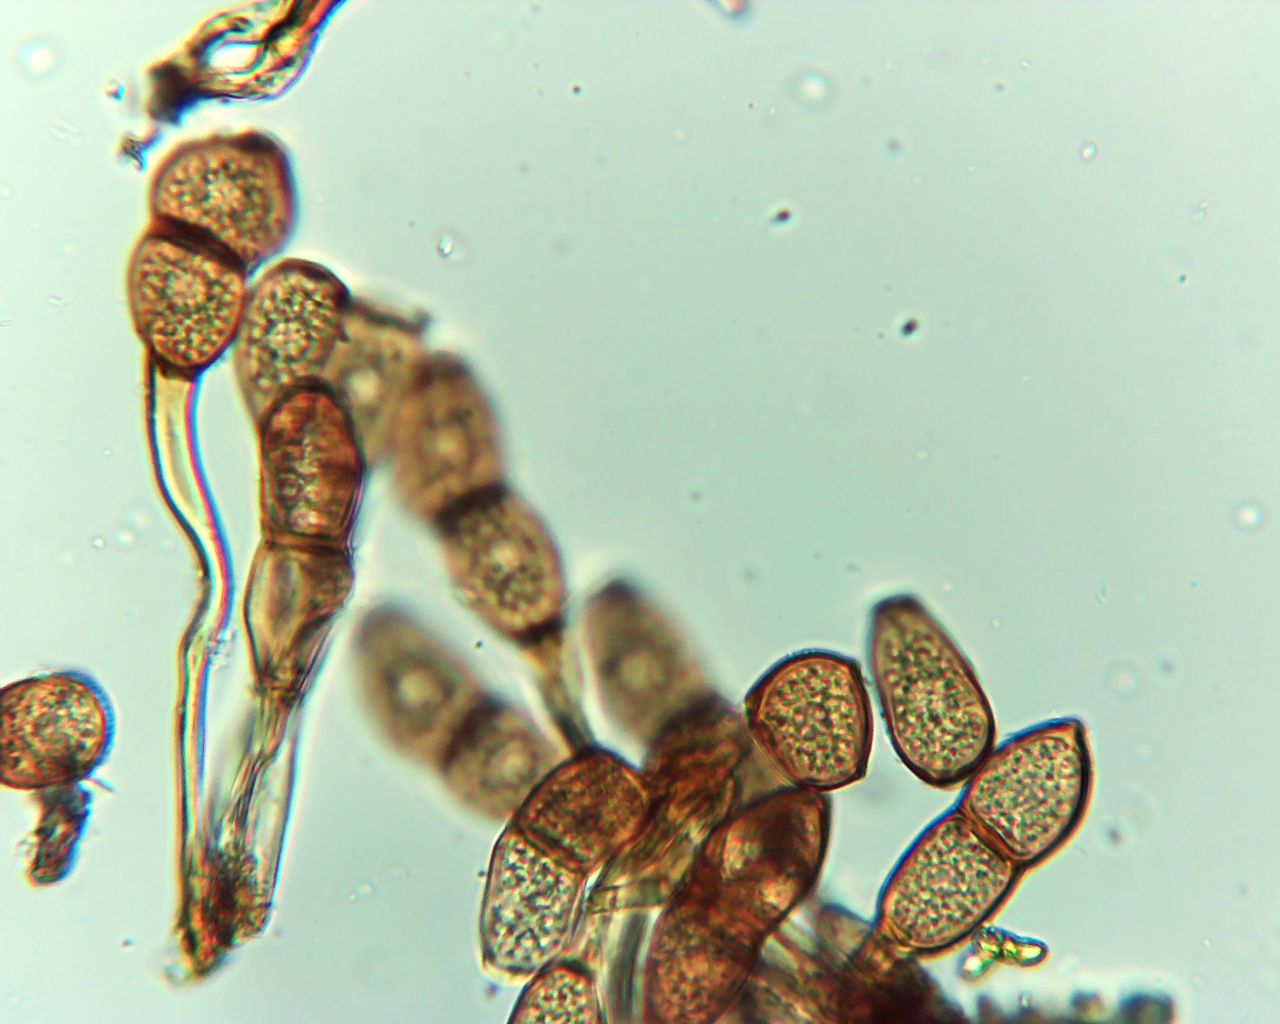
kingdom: Fungi
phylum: Basidiomycota
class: Pucciniomycetes
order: Pucciniales
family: Pucciniaceae
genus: Puccinia
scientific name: Puccinia phragmitis
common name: tagrør-tvecellerust
